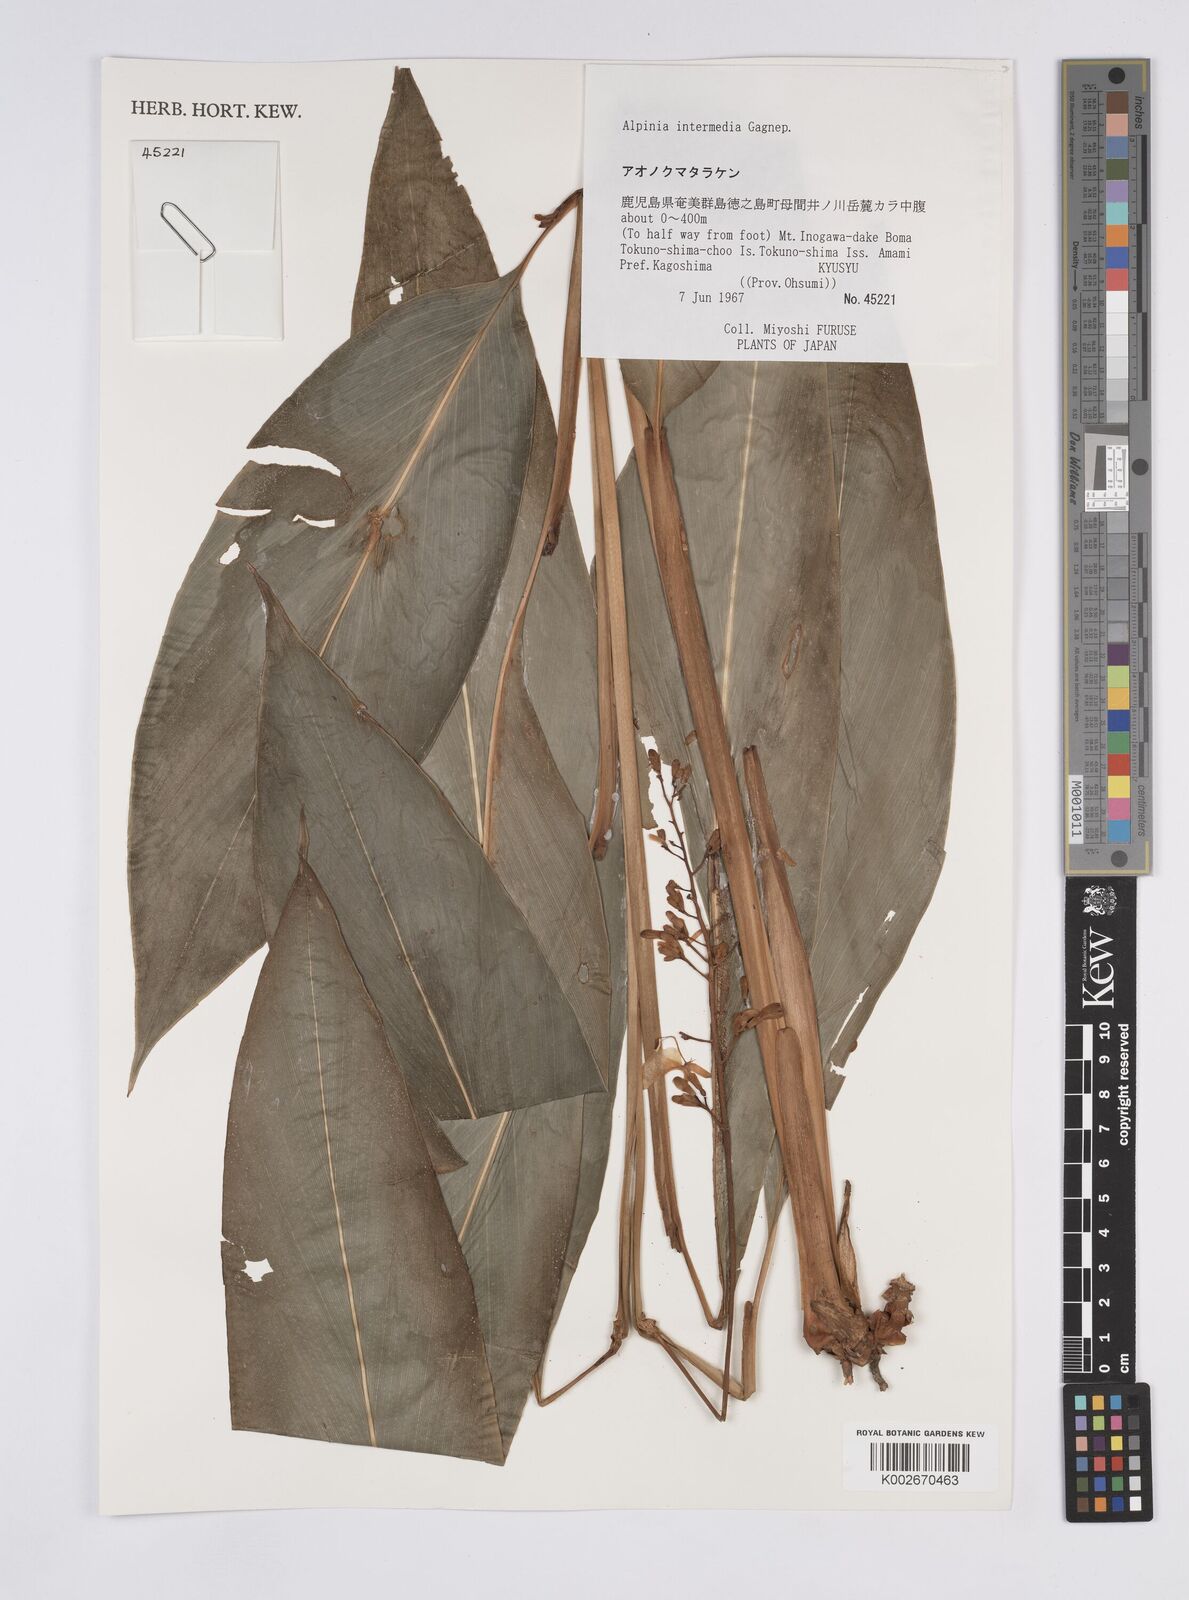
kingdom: Plantae
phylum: Tracheophyta
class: Liliopsida
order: Zingiberales
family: Zingiberaceae
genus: Alpinia
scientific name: Alpinia intermedia
